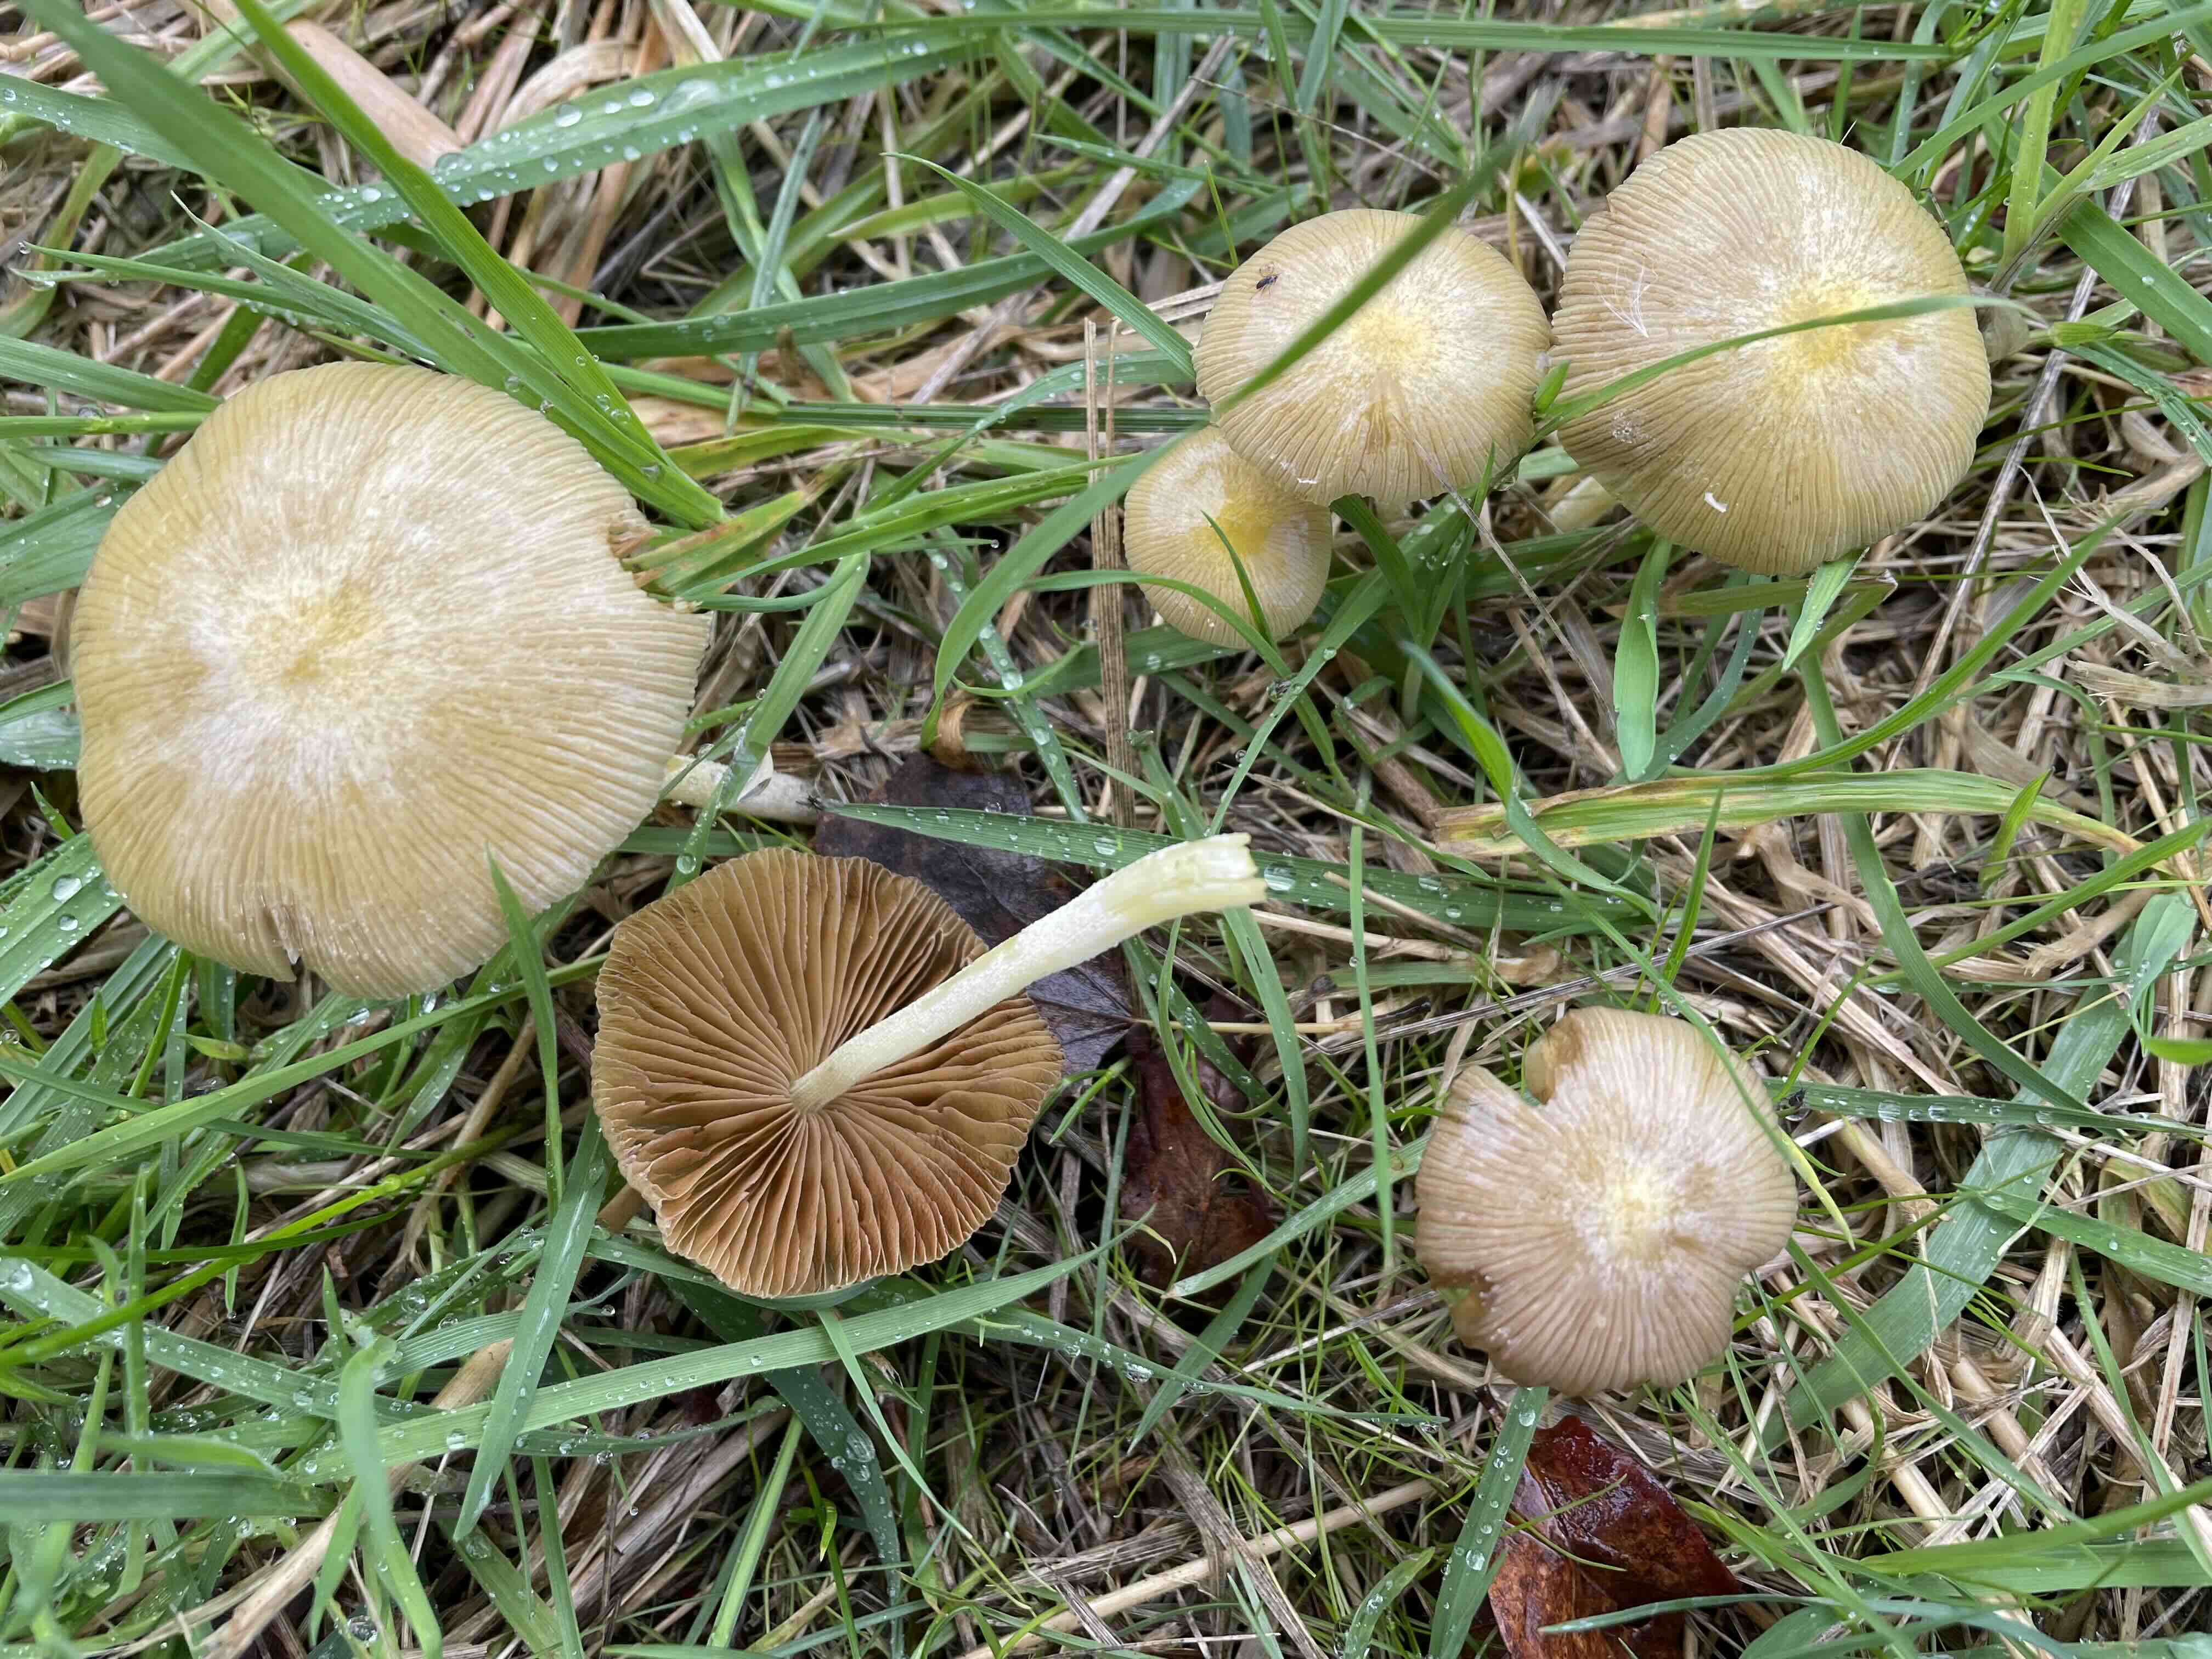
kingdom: Fungi
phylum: Basidiomycota
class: Agaricomycetes
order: Agaricales
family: Bolbitiaceae
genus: Bolbitius
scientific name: Bolbitius titubans
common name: almindelig gulhat
